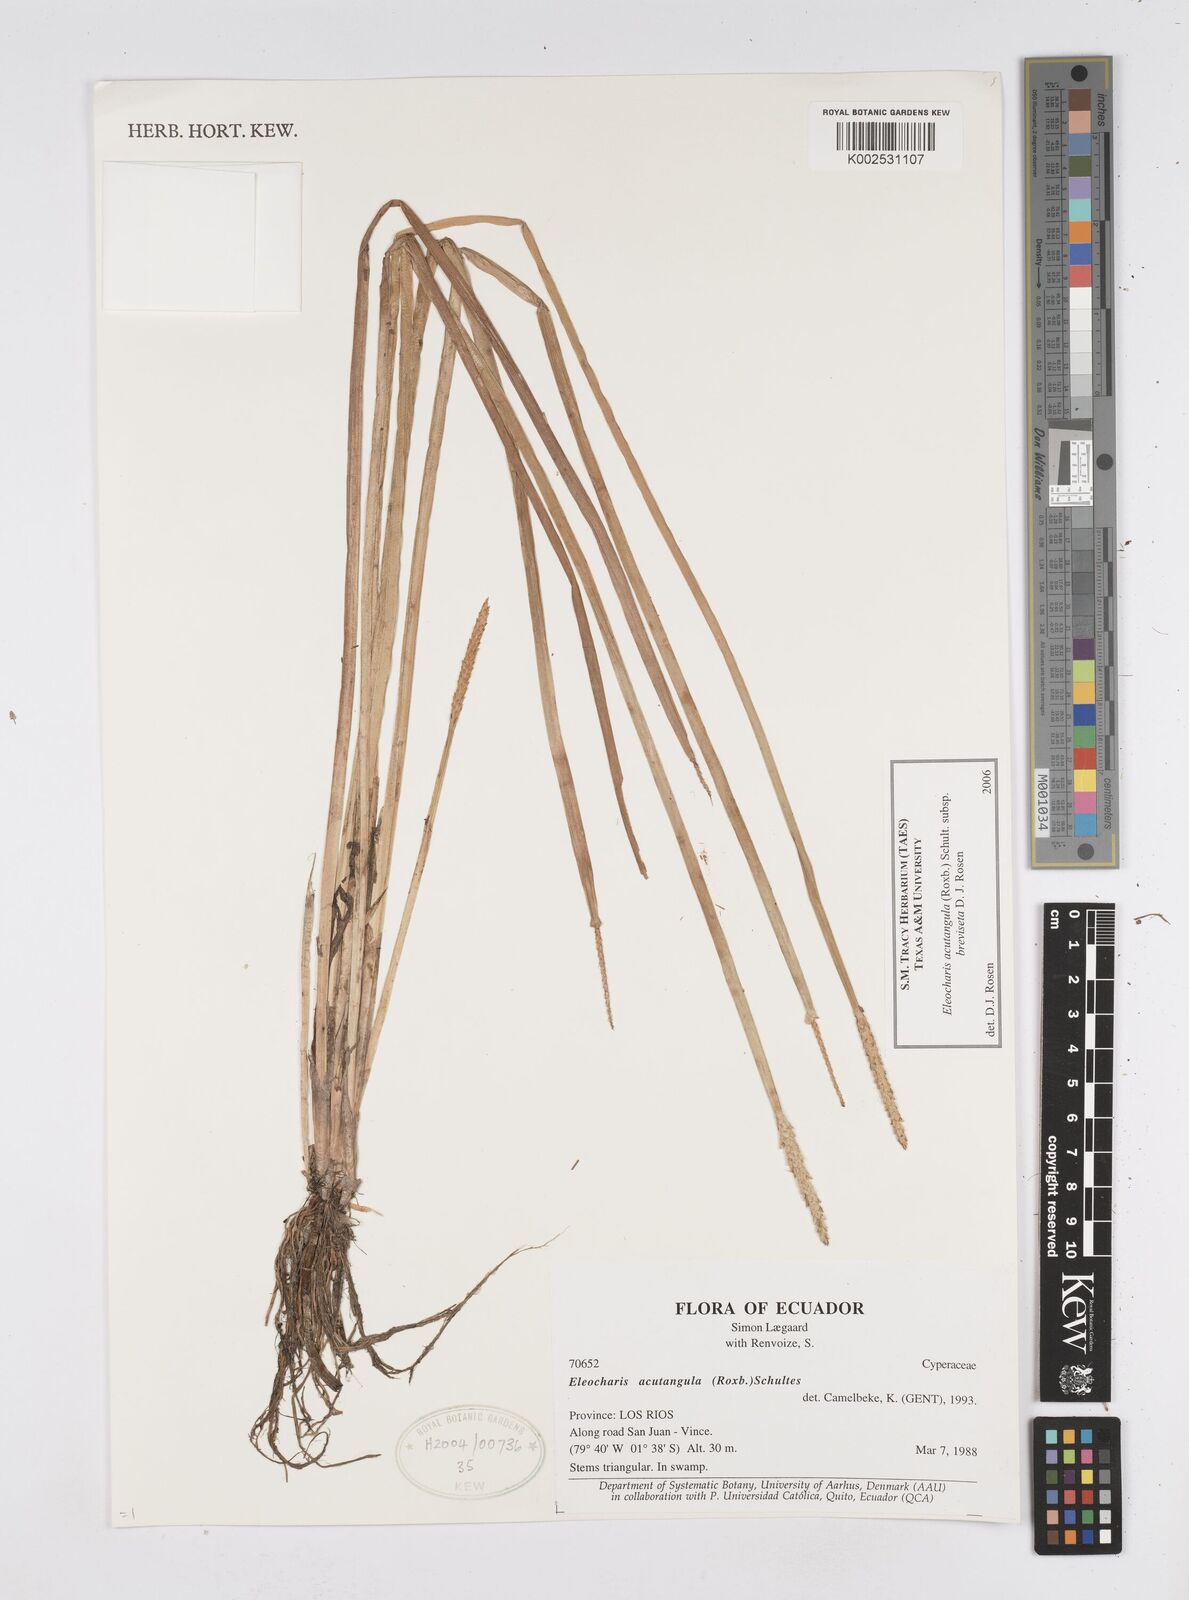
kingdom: Plantae
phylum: Tracheophyta
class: Liliopsida
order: Poales
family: Cyperaceae
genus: Eleocharis
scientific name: Eleocharis acutangula
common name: Acute spikerush
